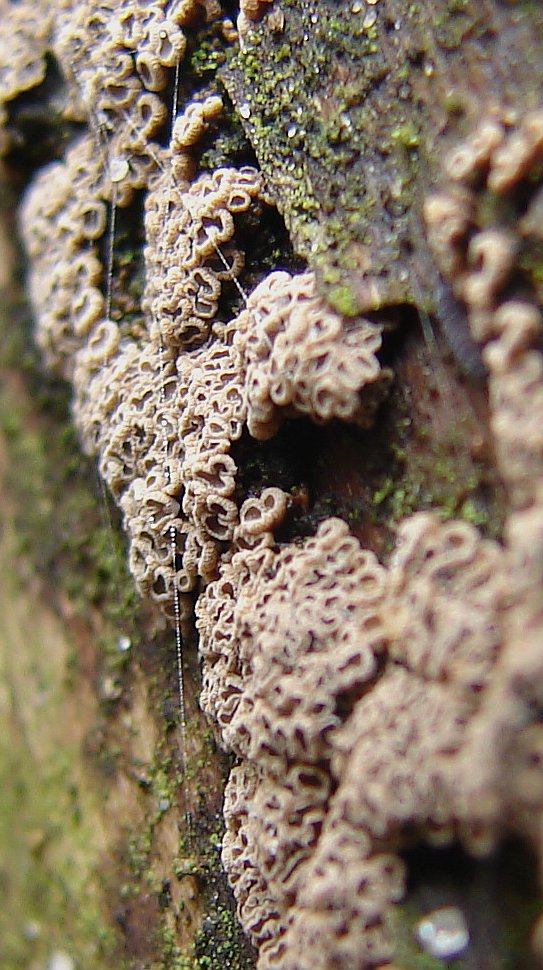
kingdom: Fungi
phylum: Basidiomycota
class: Agaricomycetes
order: Agaricales
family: Niaceae
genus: Merismodes
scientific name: Merismodes anomala
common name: almindelig læderskål
